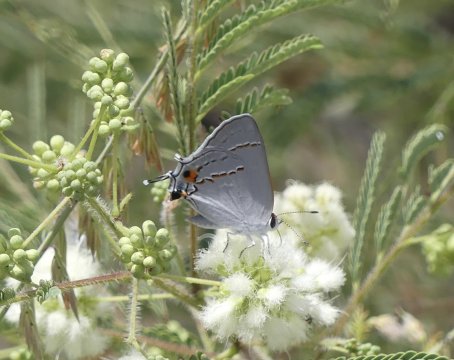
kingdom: Animalia
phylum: Arthropoda
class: Insecta
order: Lepidoptera
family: Lycaenidae
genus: Strymon
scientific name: Strymon melinus
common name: Gray Hairstreak
